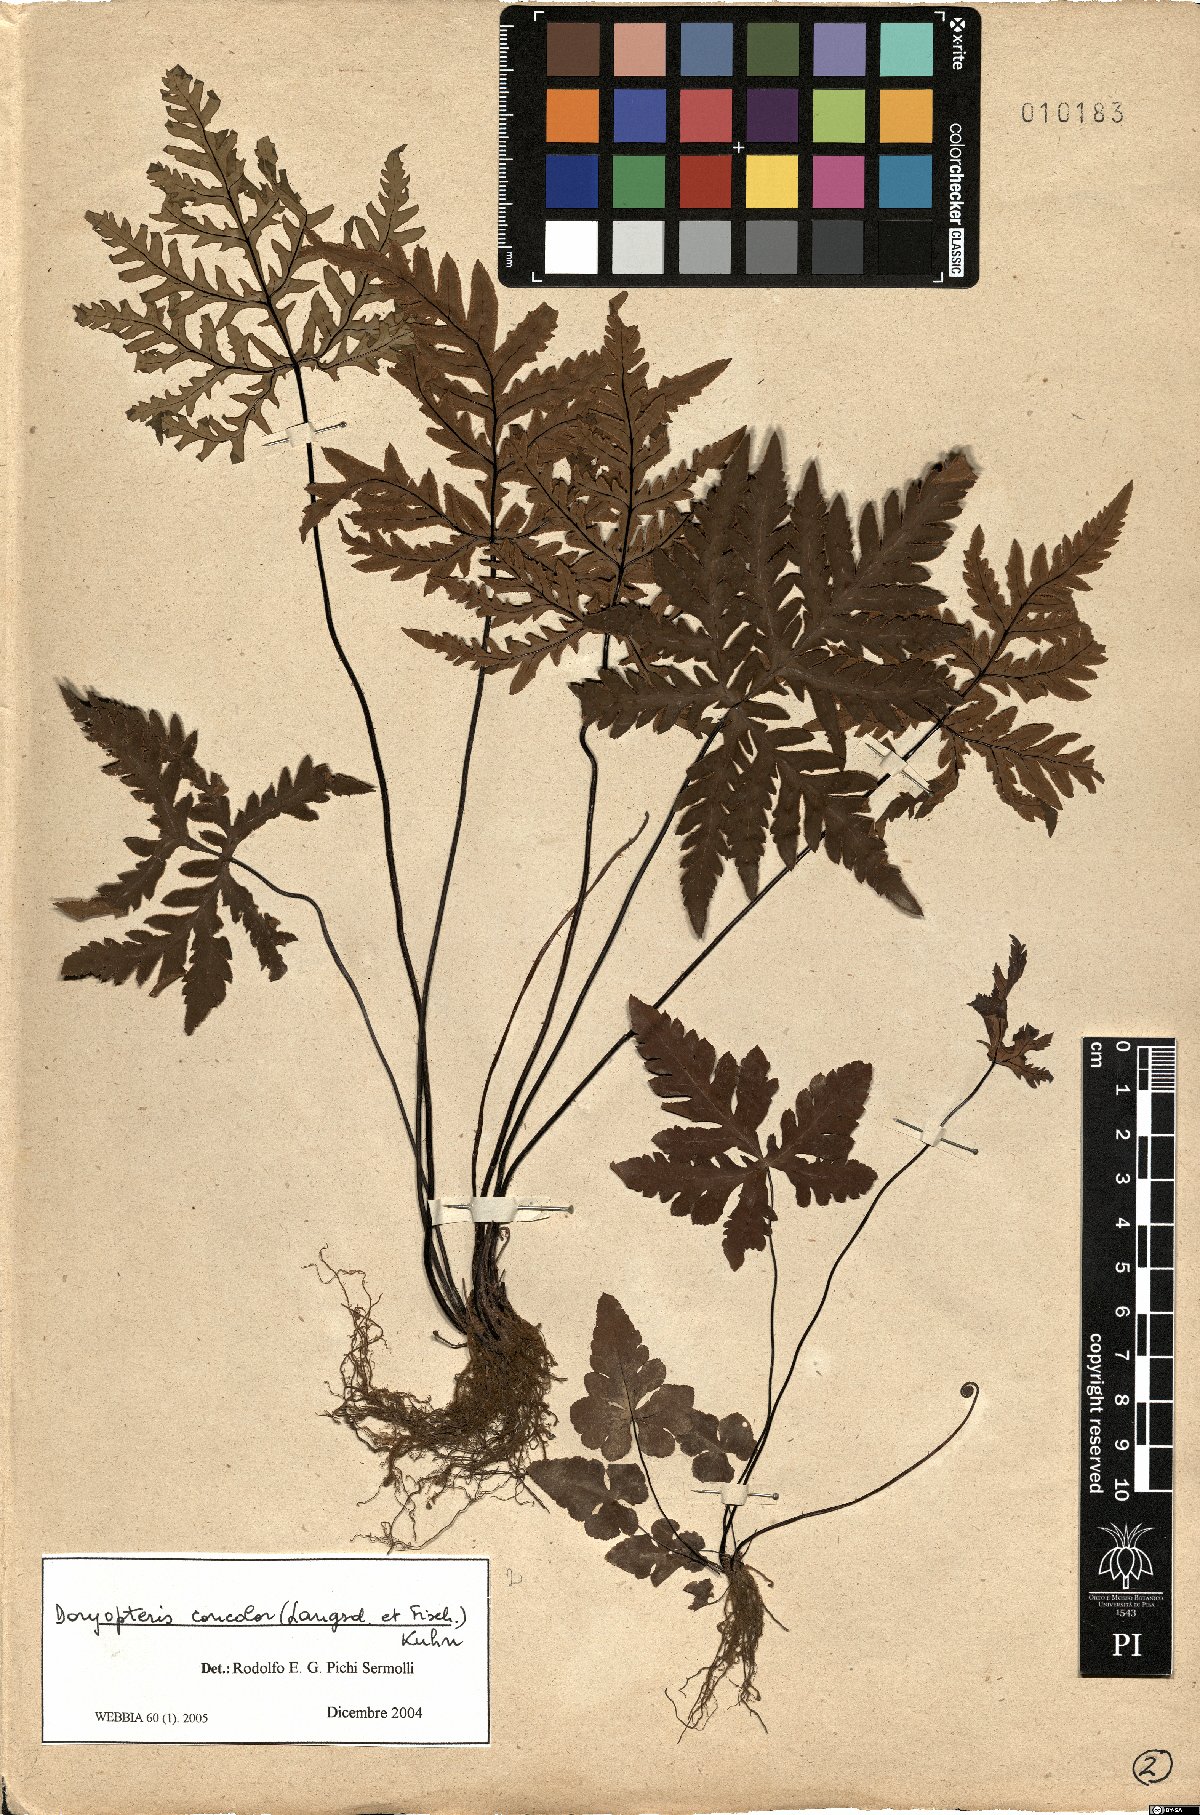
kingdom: Plantae
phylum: Tracheophyta
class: Polypodiopsida
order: Polypodiales
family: Pteridaceae
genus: Doryopteris
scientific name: Doryopteris concolor
